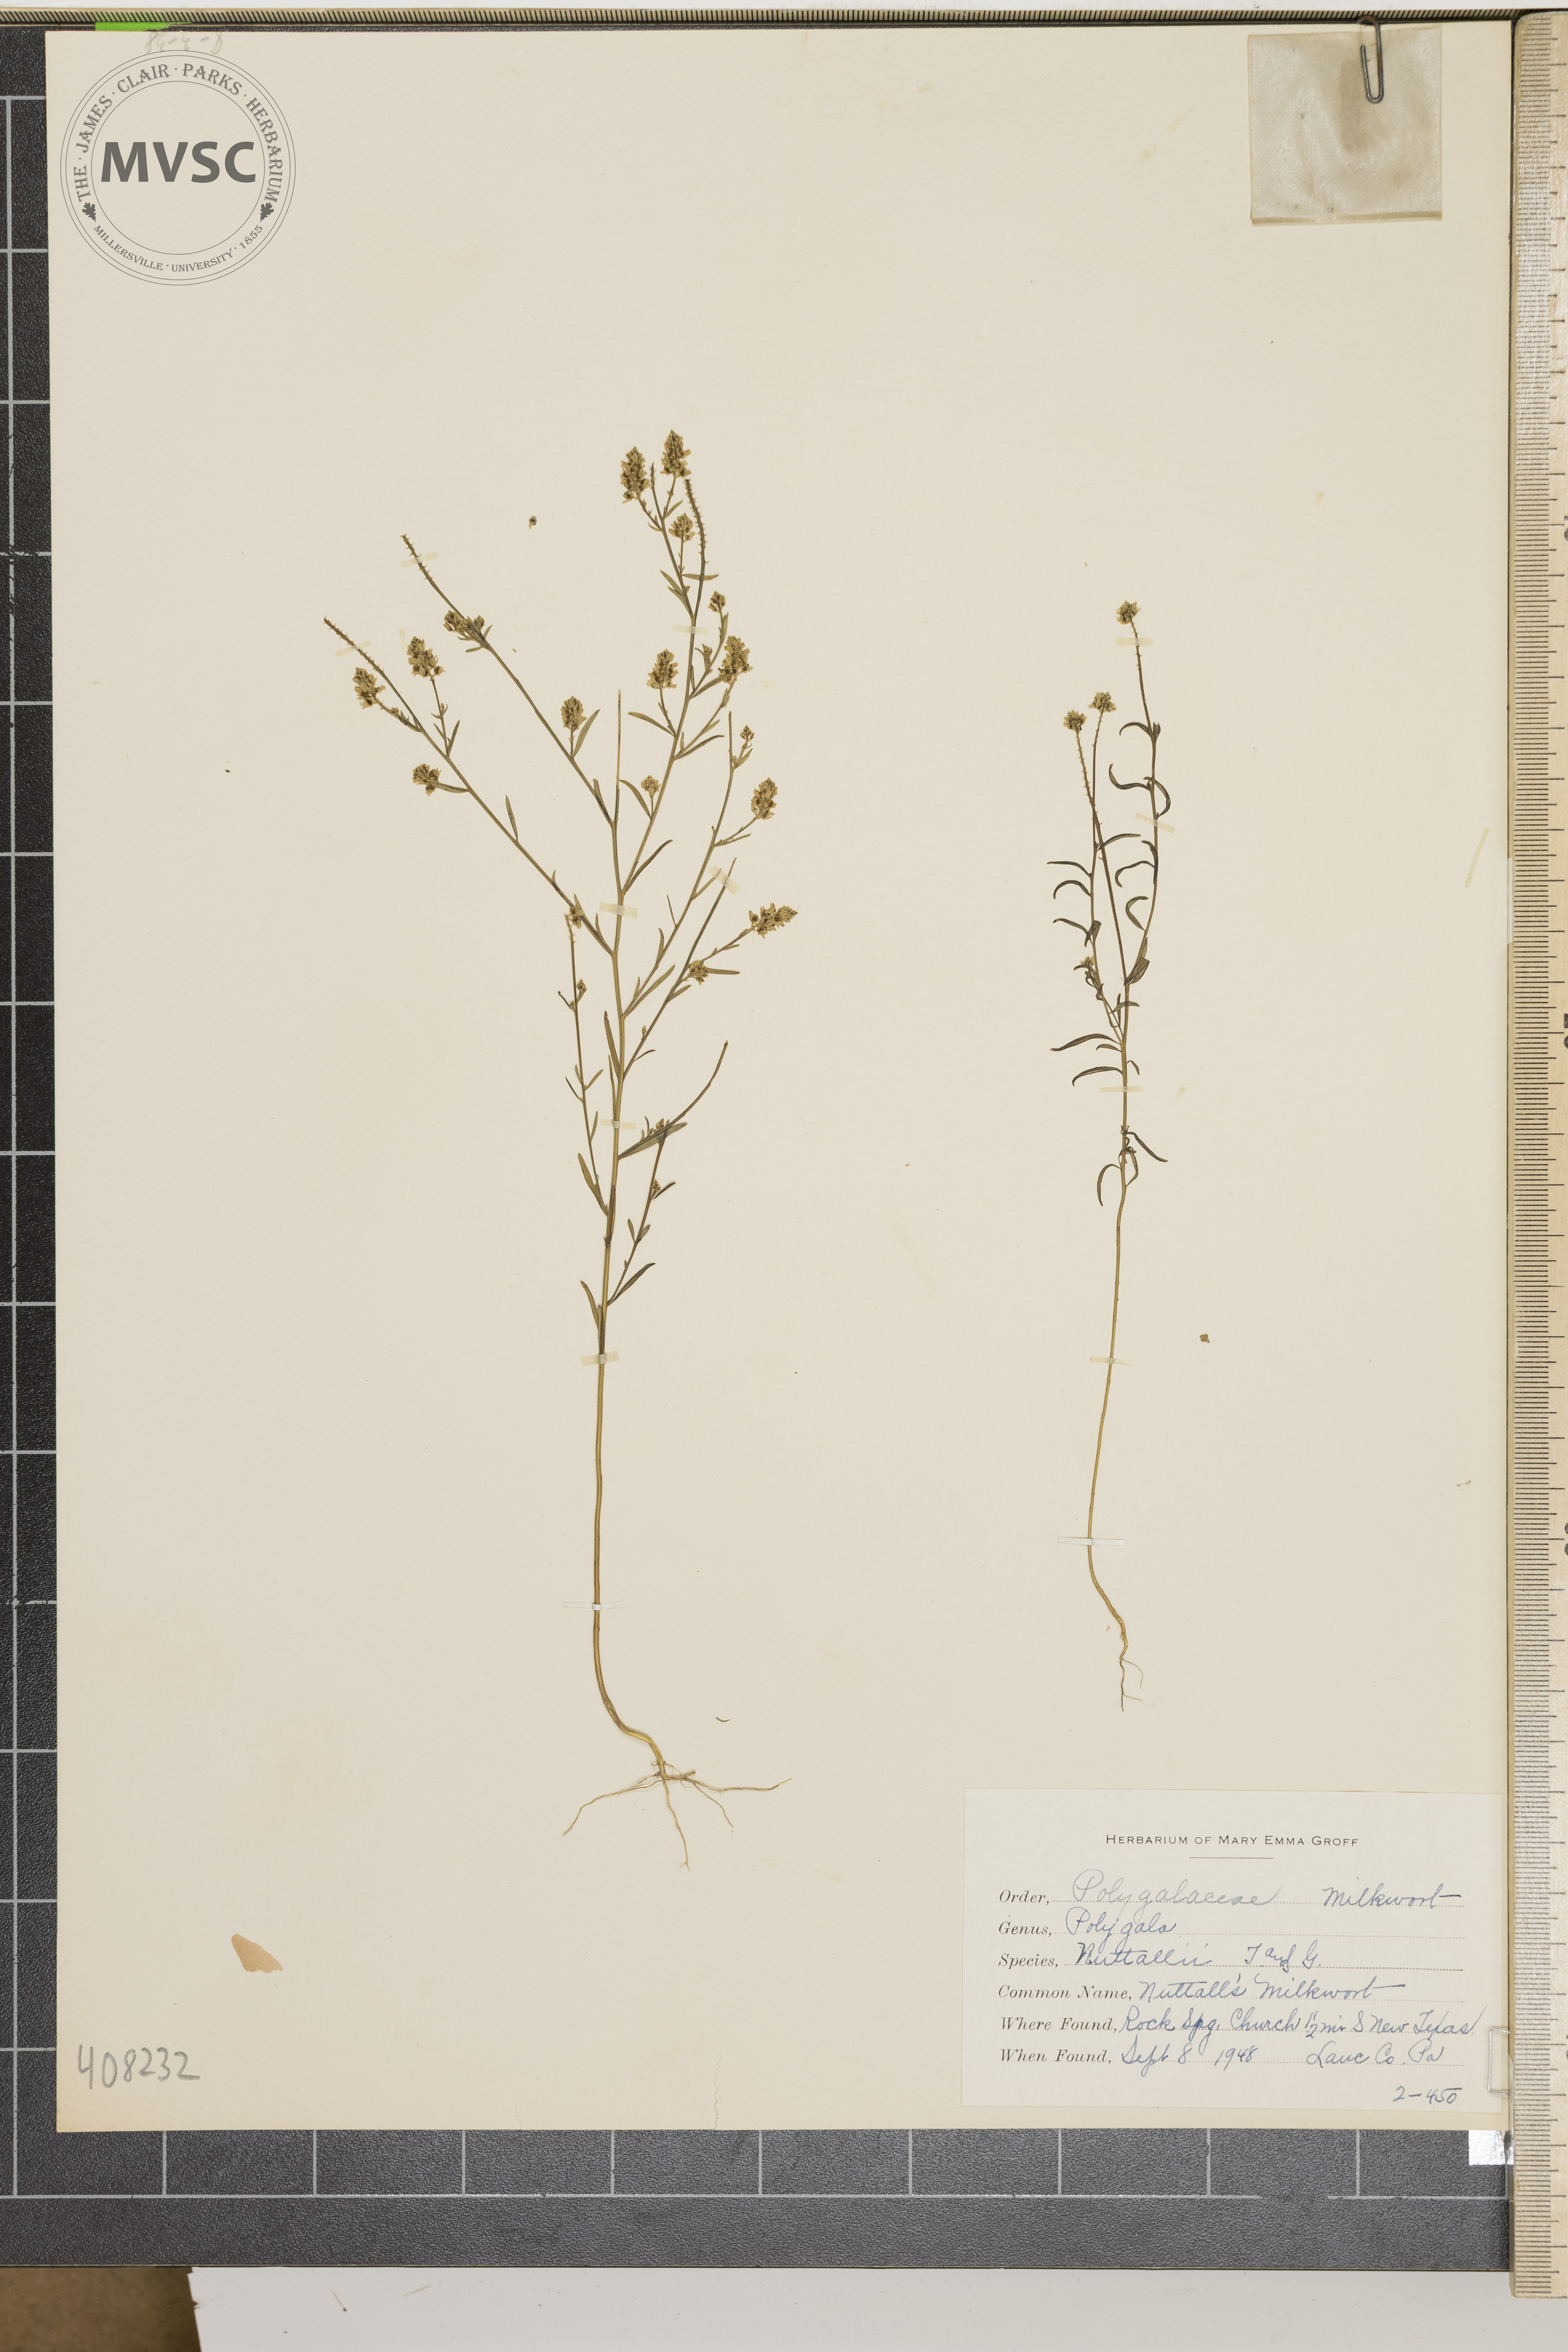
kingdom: Plantae
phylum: Tracheophyta
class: Magnoliopsida
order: Fabales
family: Polygalaceae
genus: Polygala
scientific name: Polygala nuttallii
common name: Nuttall's Milkwort
